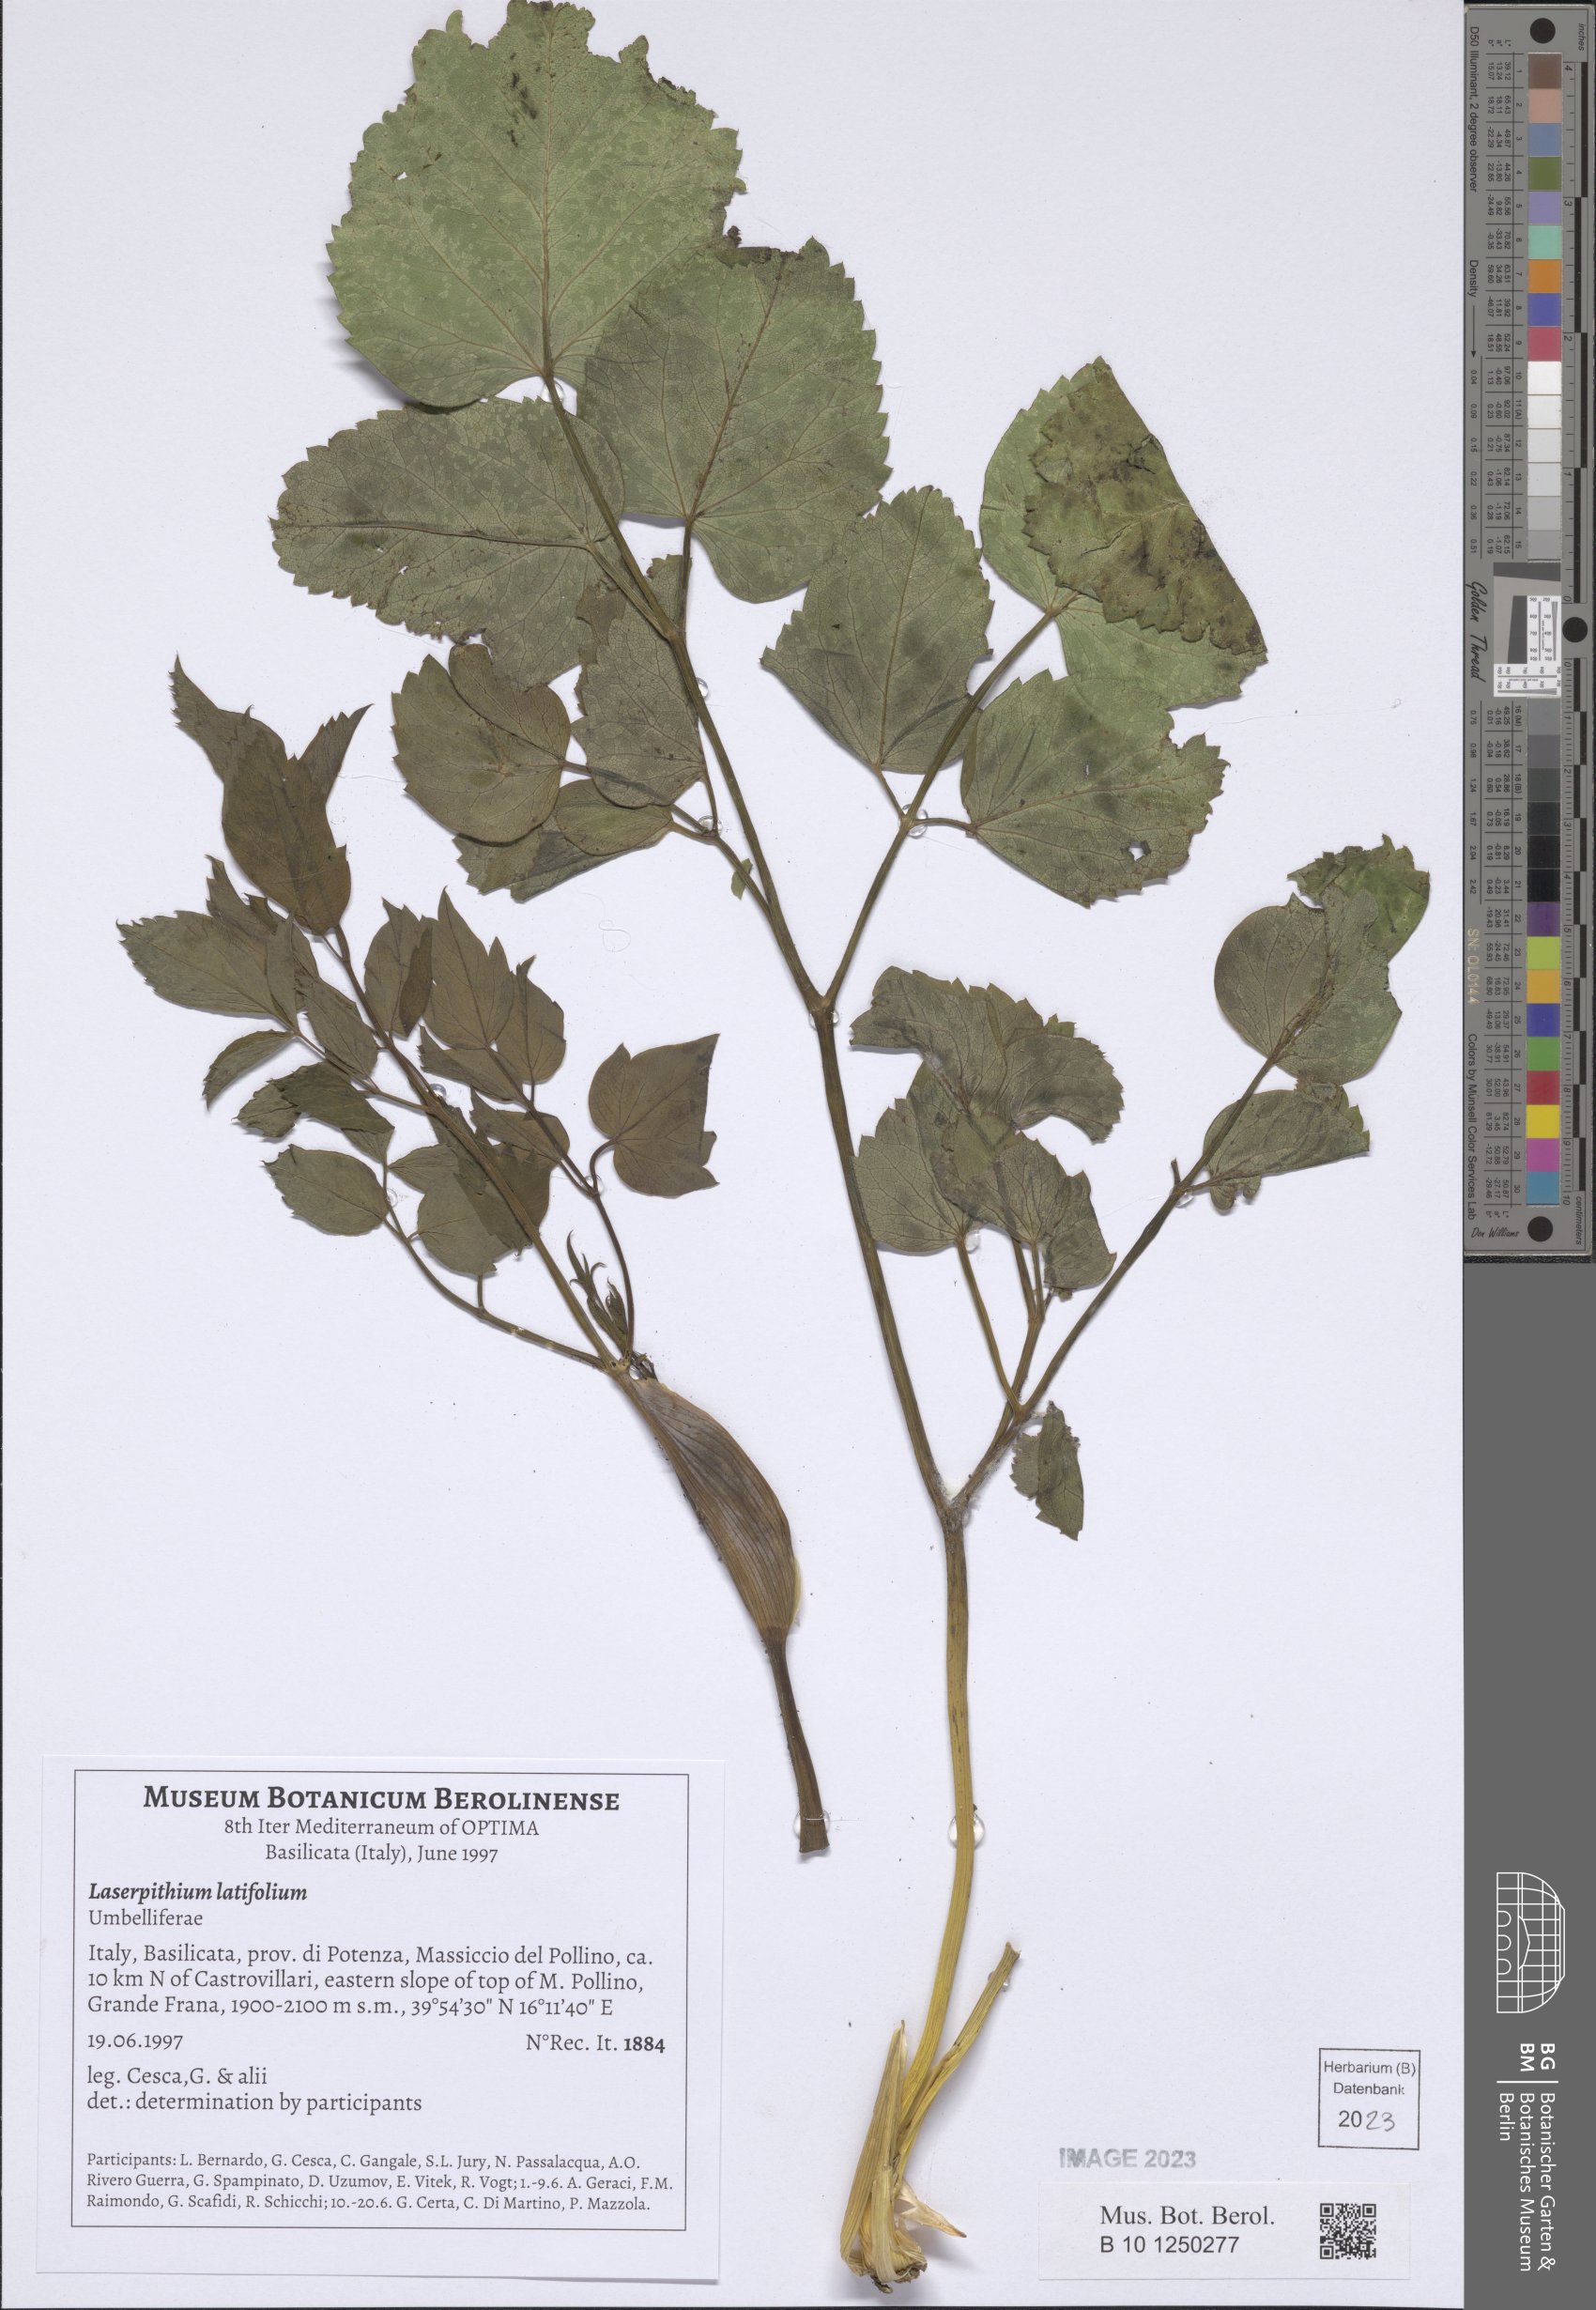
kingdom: Plantae
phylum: Tracheophyta
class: Magnoliopsida
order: Apiales
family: Apiaceae
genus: Laserpitium
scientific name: Laserpitium latifolium
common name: Broadleaf sermountain
